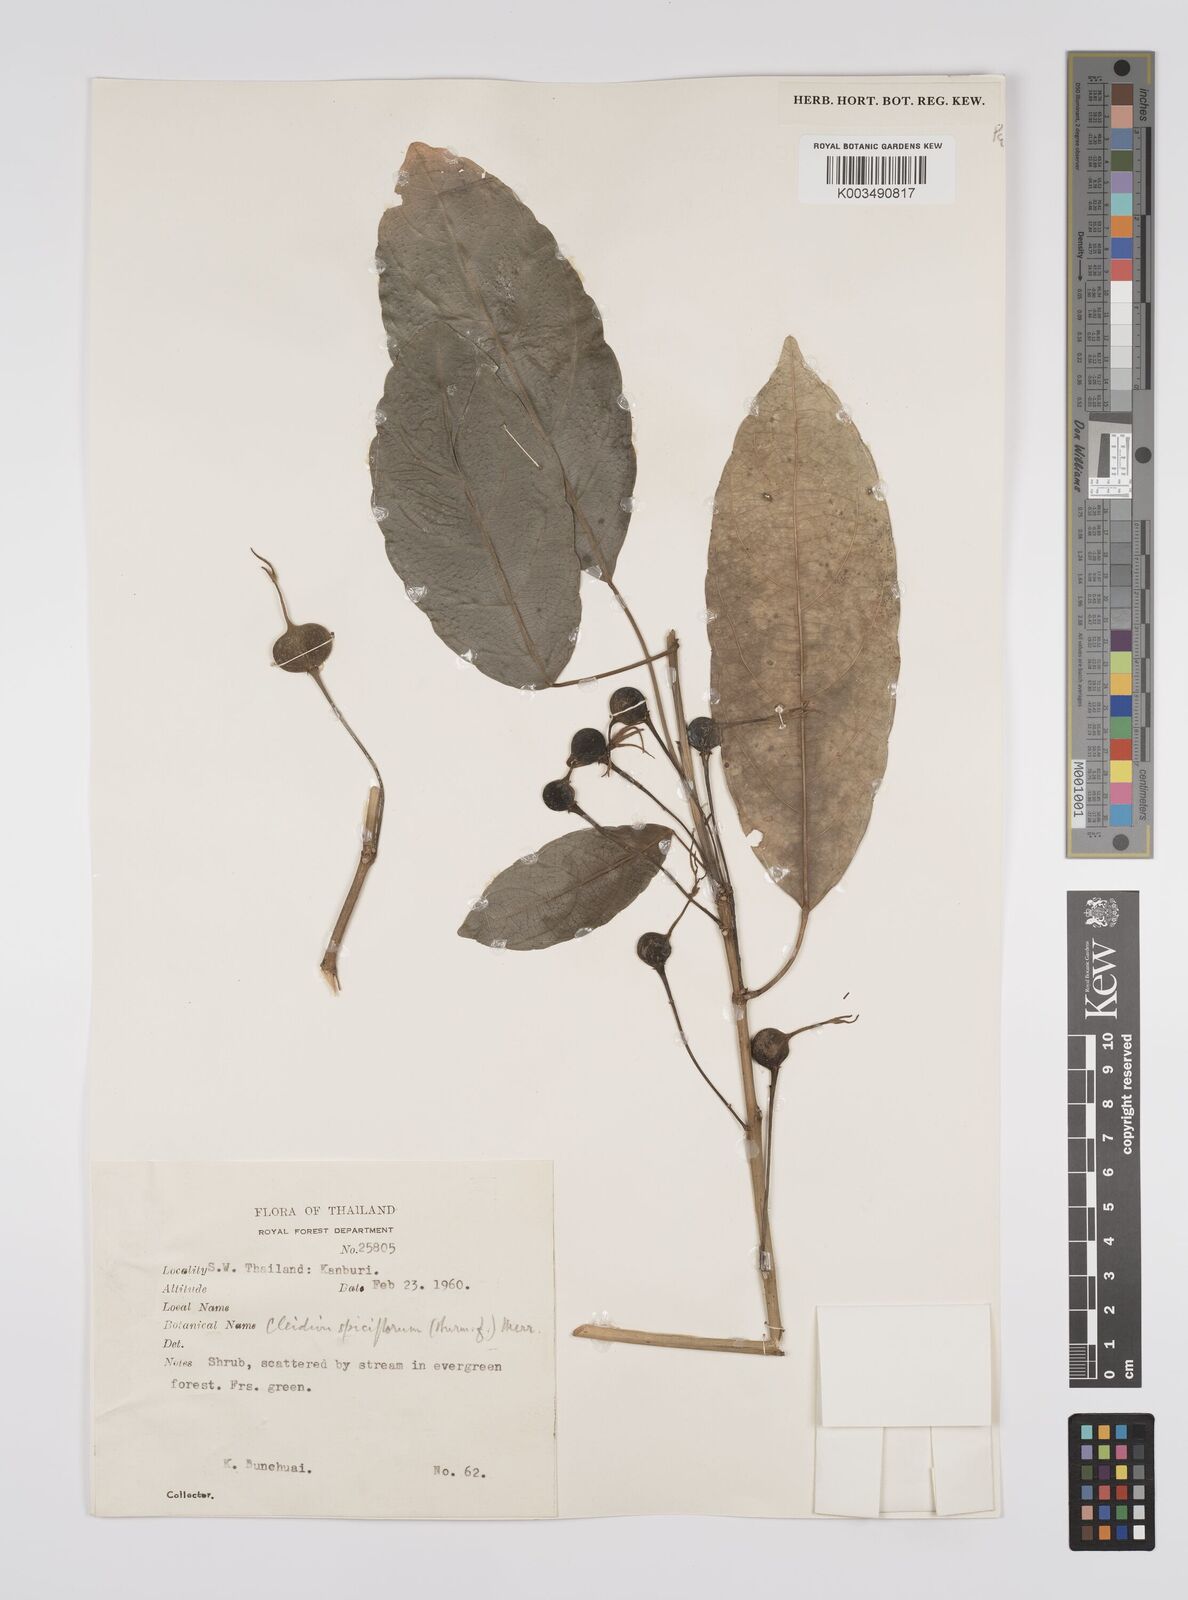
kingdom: Plantae
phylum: Tracheophyta
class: Magnoliopsida
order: Malpighiales
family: Euphorbiaceae
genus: Acalypha
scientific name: Acalypha spiciflora
